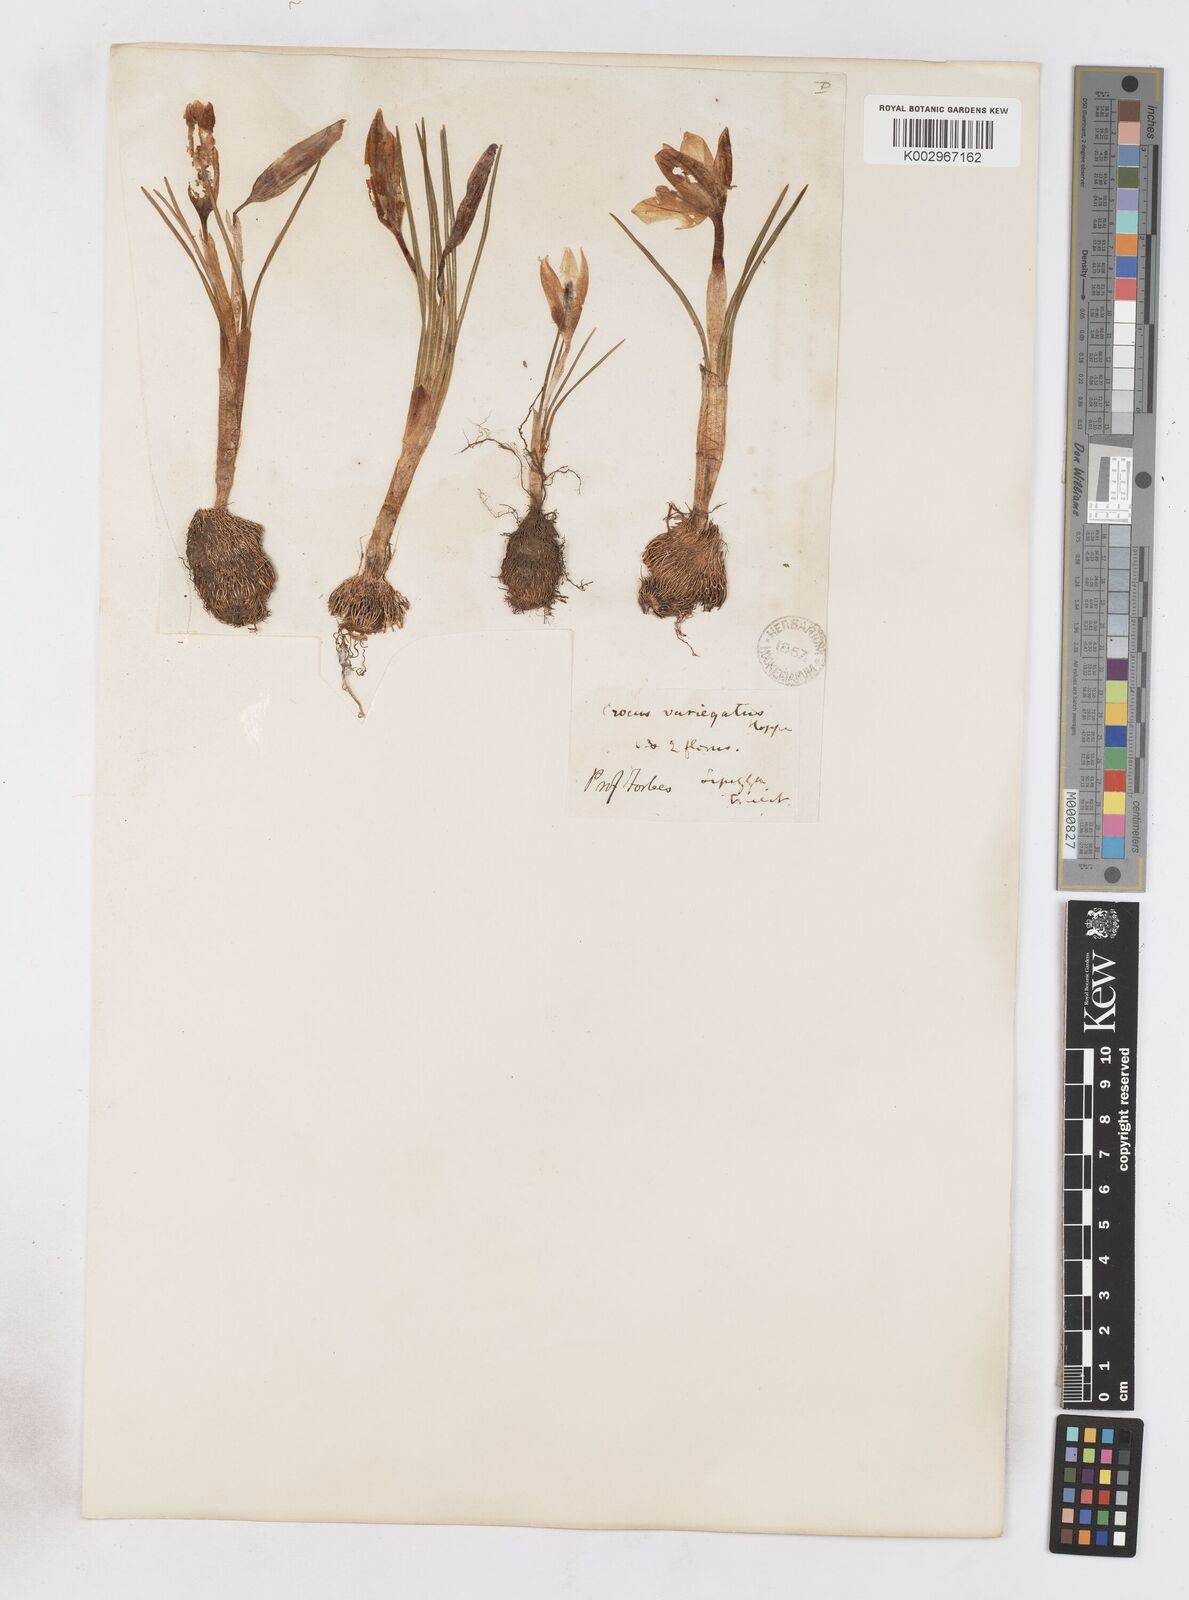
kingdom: Plantae
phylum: Tracheophyta
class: Liliopsida
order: Asparagales
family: Iridaceae
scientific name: Iridaceae
